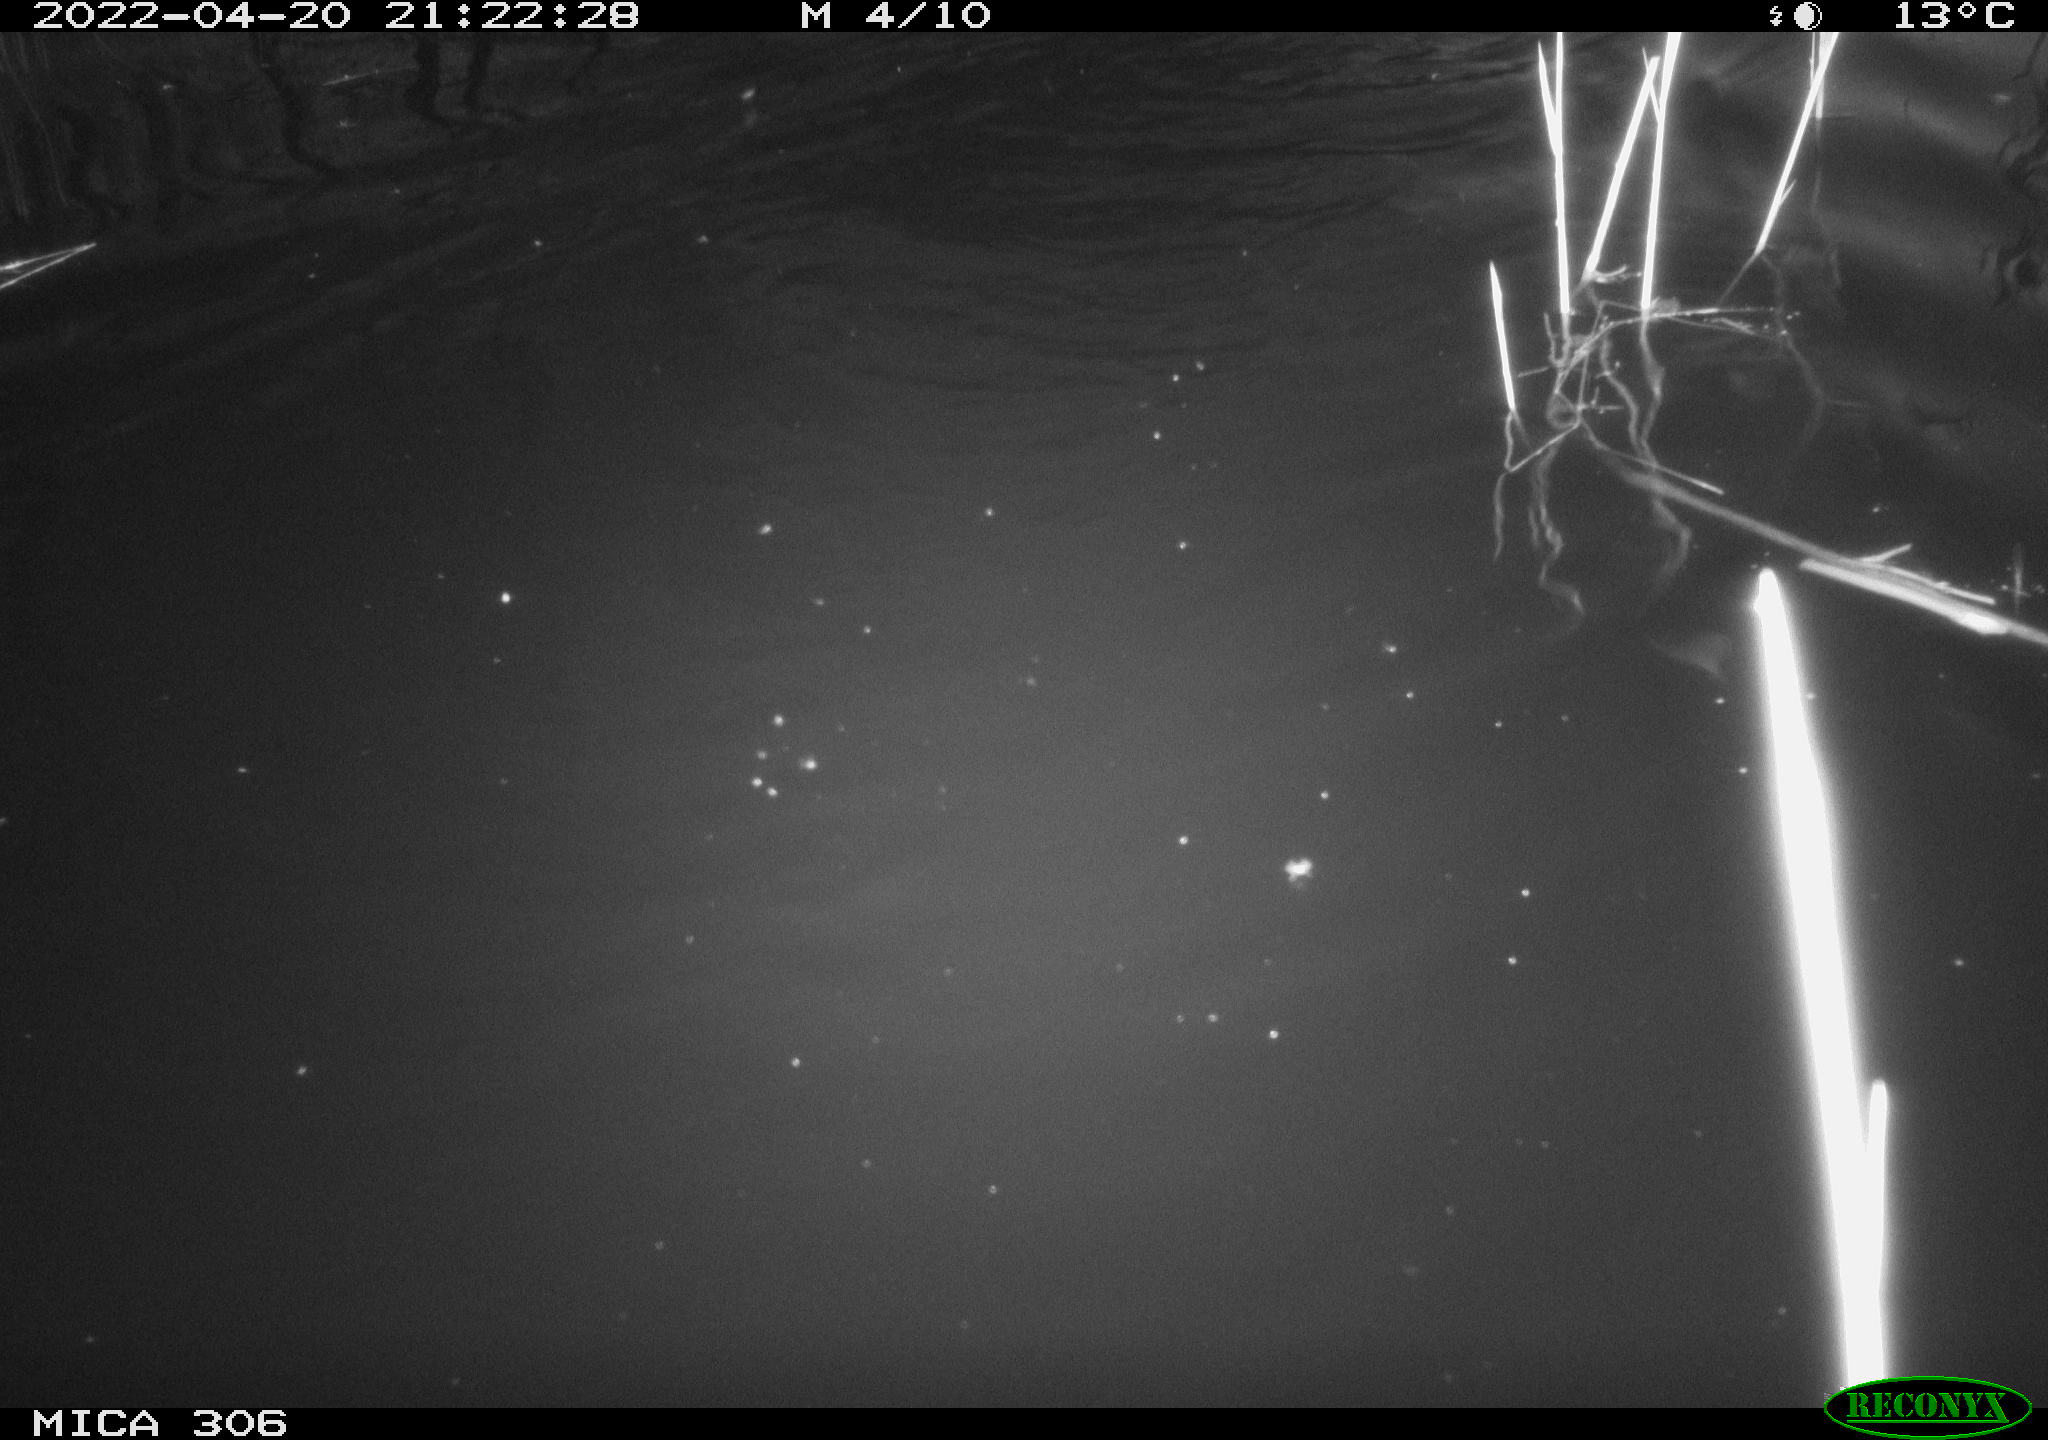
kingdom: Animalia
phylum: Chordata
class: Mammalia
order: Rodentia
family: Cricetidae
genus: Ondatra
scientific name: Ondatra zibethicus
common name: Muskrat
